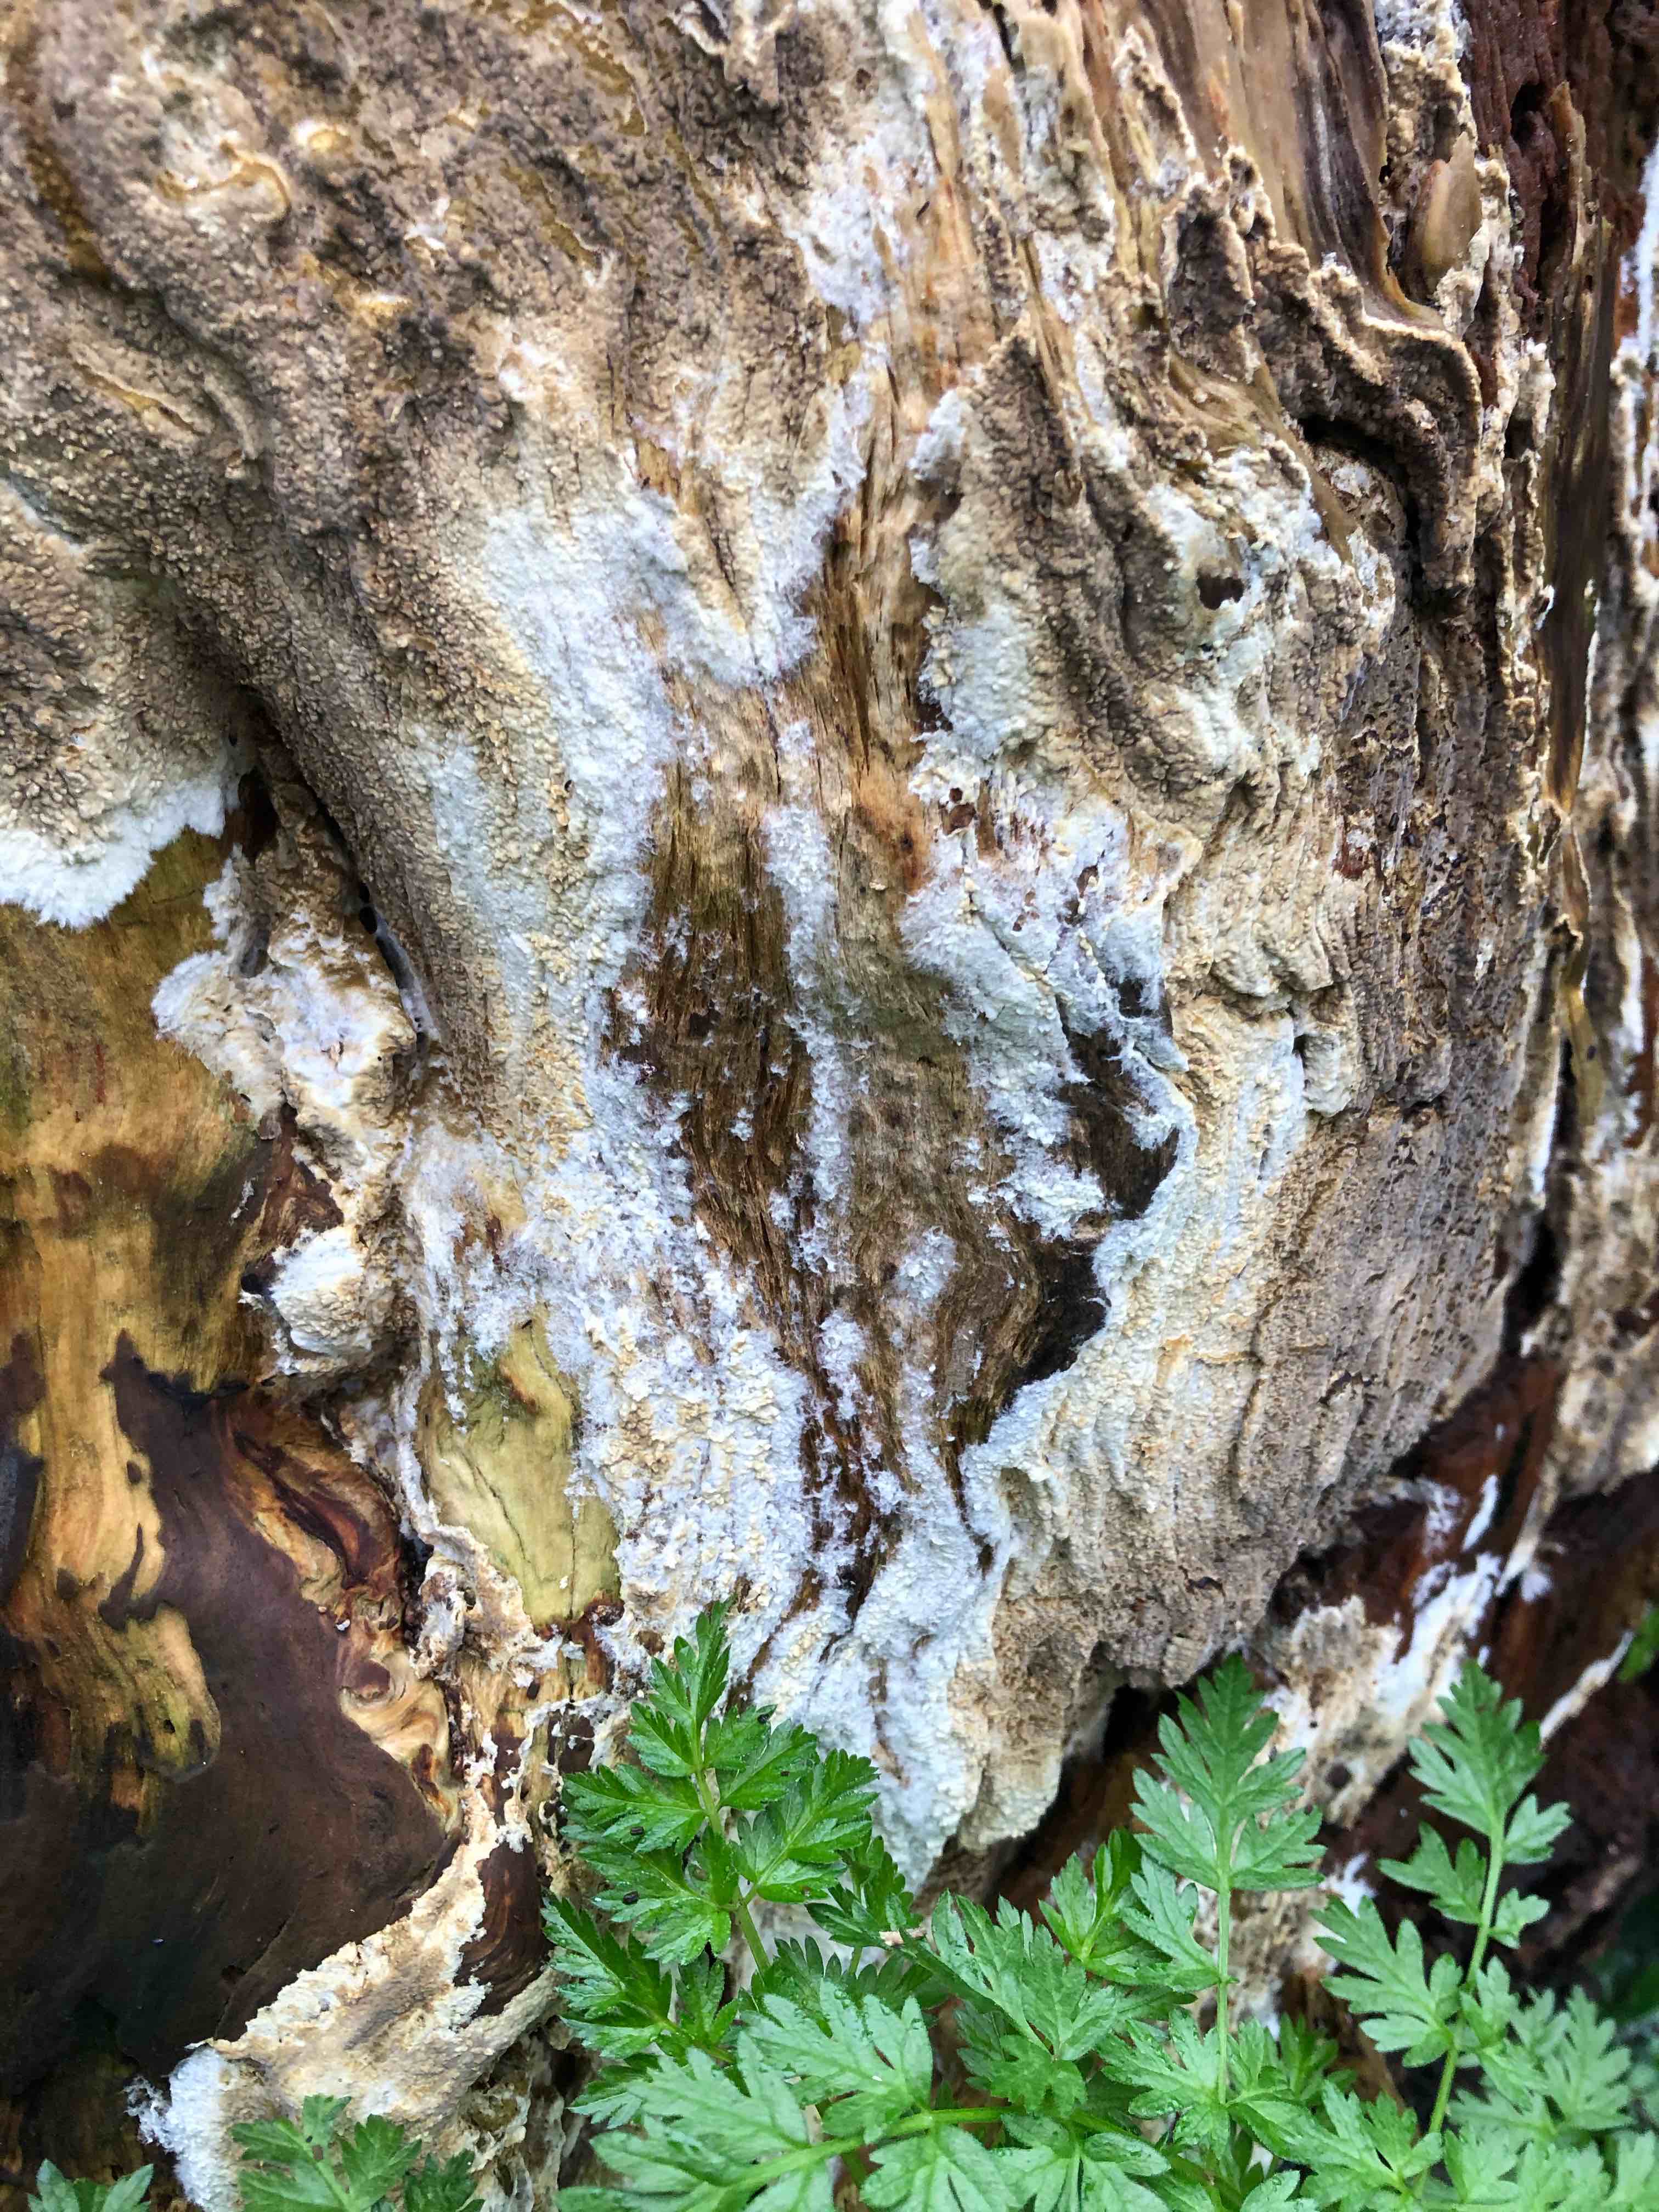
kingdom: Fungi
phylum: Basidiomycota
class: Agaricomycetes
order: Boletales
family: Coniophoraceae
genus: Coniophora
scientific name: Coniophora puteana
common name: gul tømmersvamp
